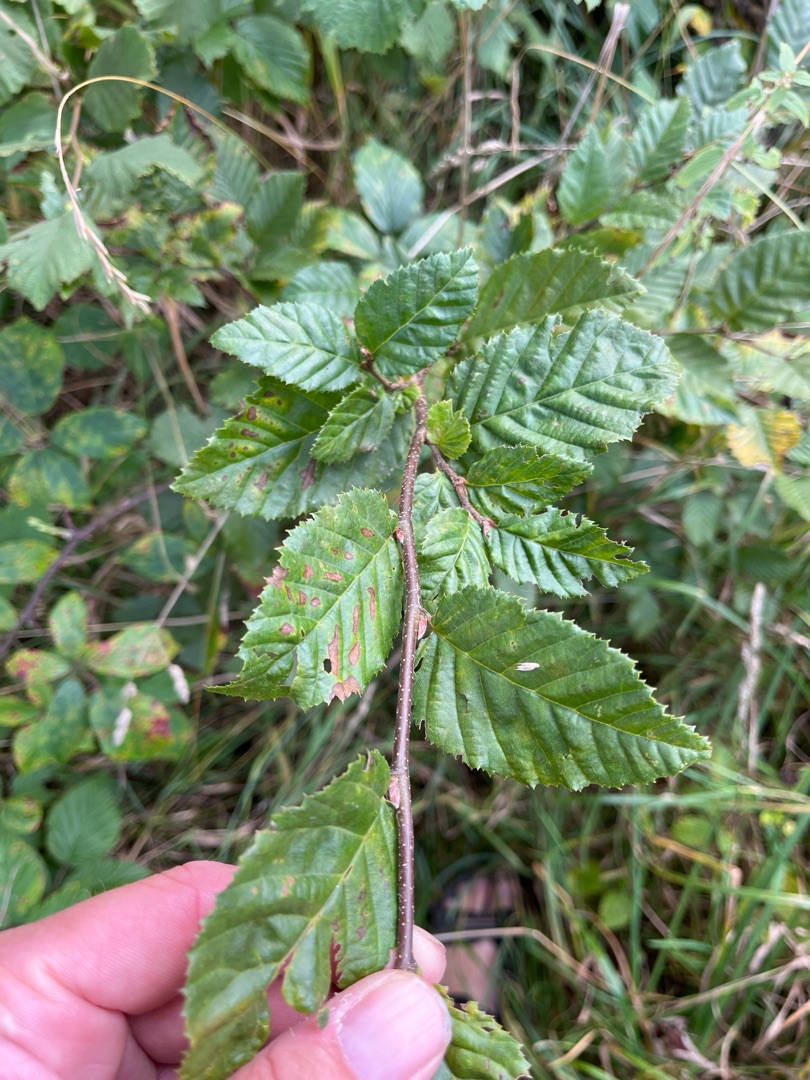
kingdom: Plantae
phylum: Tracheophyta
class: Magnoliopsida
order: Fagales
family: Betulaceae
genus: Carpinus
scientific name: Carpinus betulus
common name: Avnbøg
